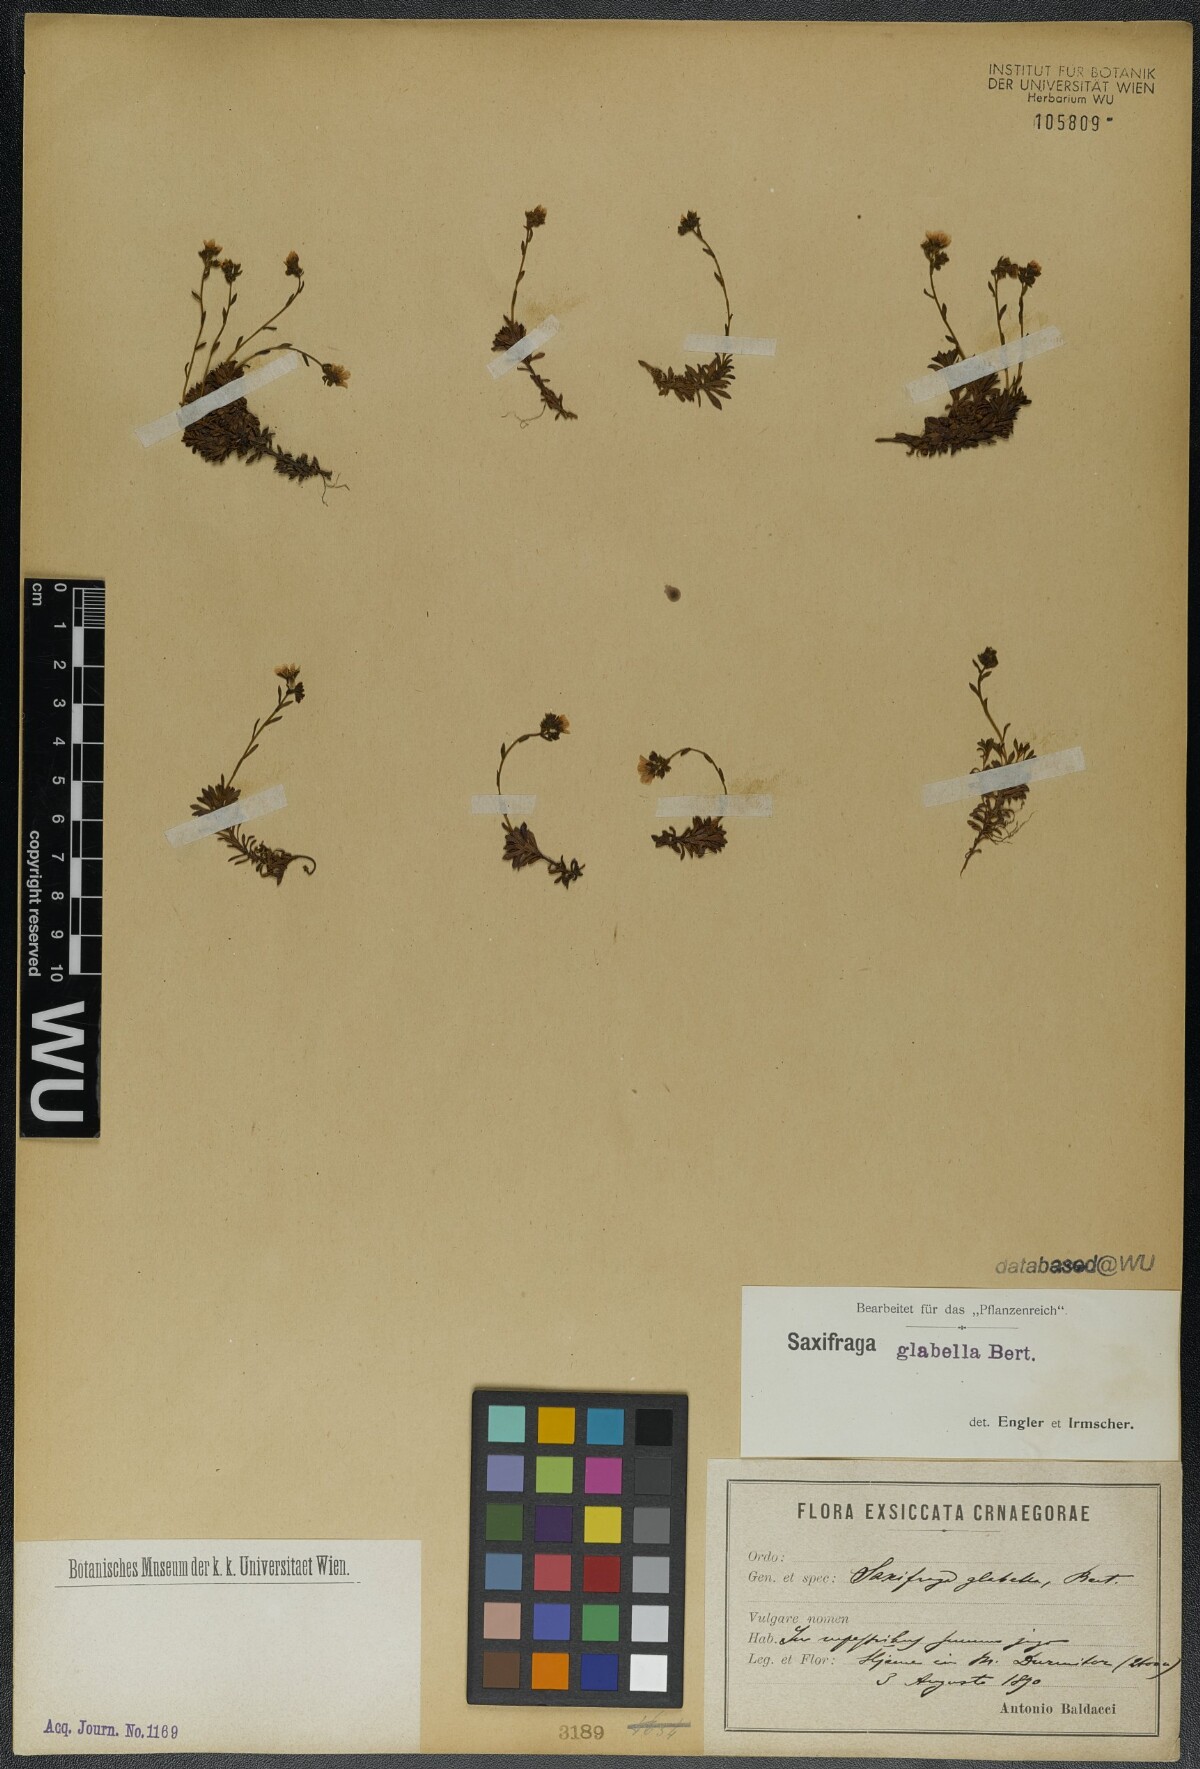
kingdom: Plantae
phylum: Tracheophyta
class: Magnoliopsida
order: Saxifragales
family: Saxifragaceae
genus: Saxifraga
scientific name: Saxifraga glabella
